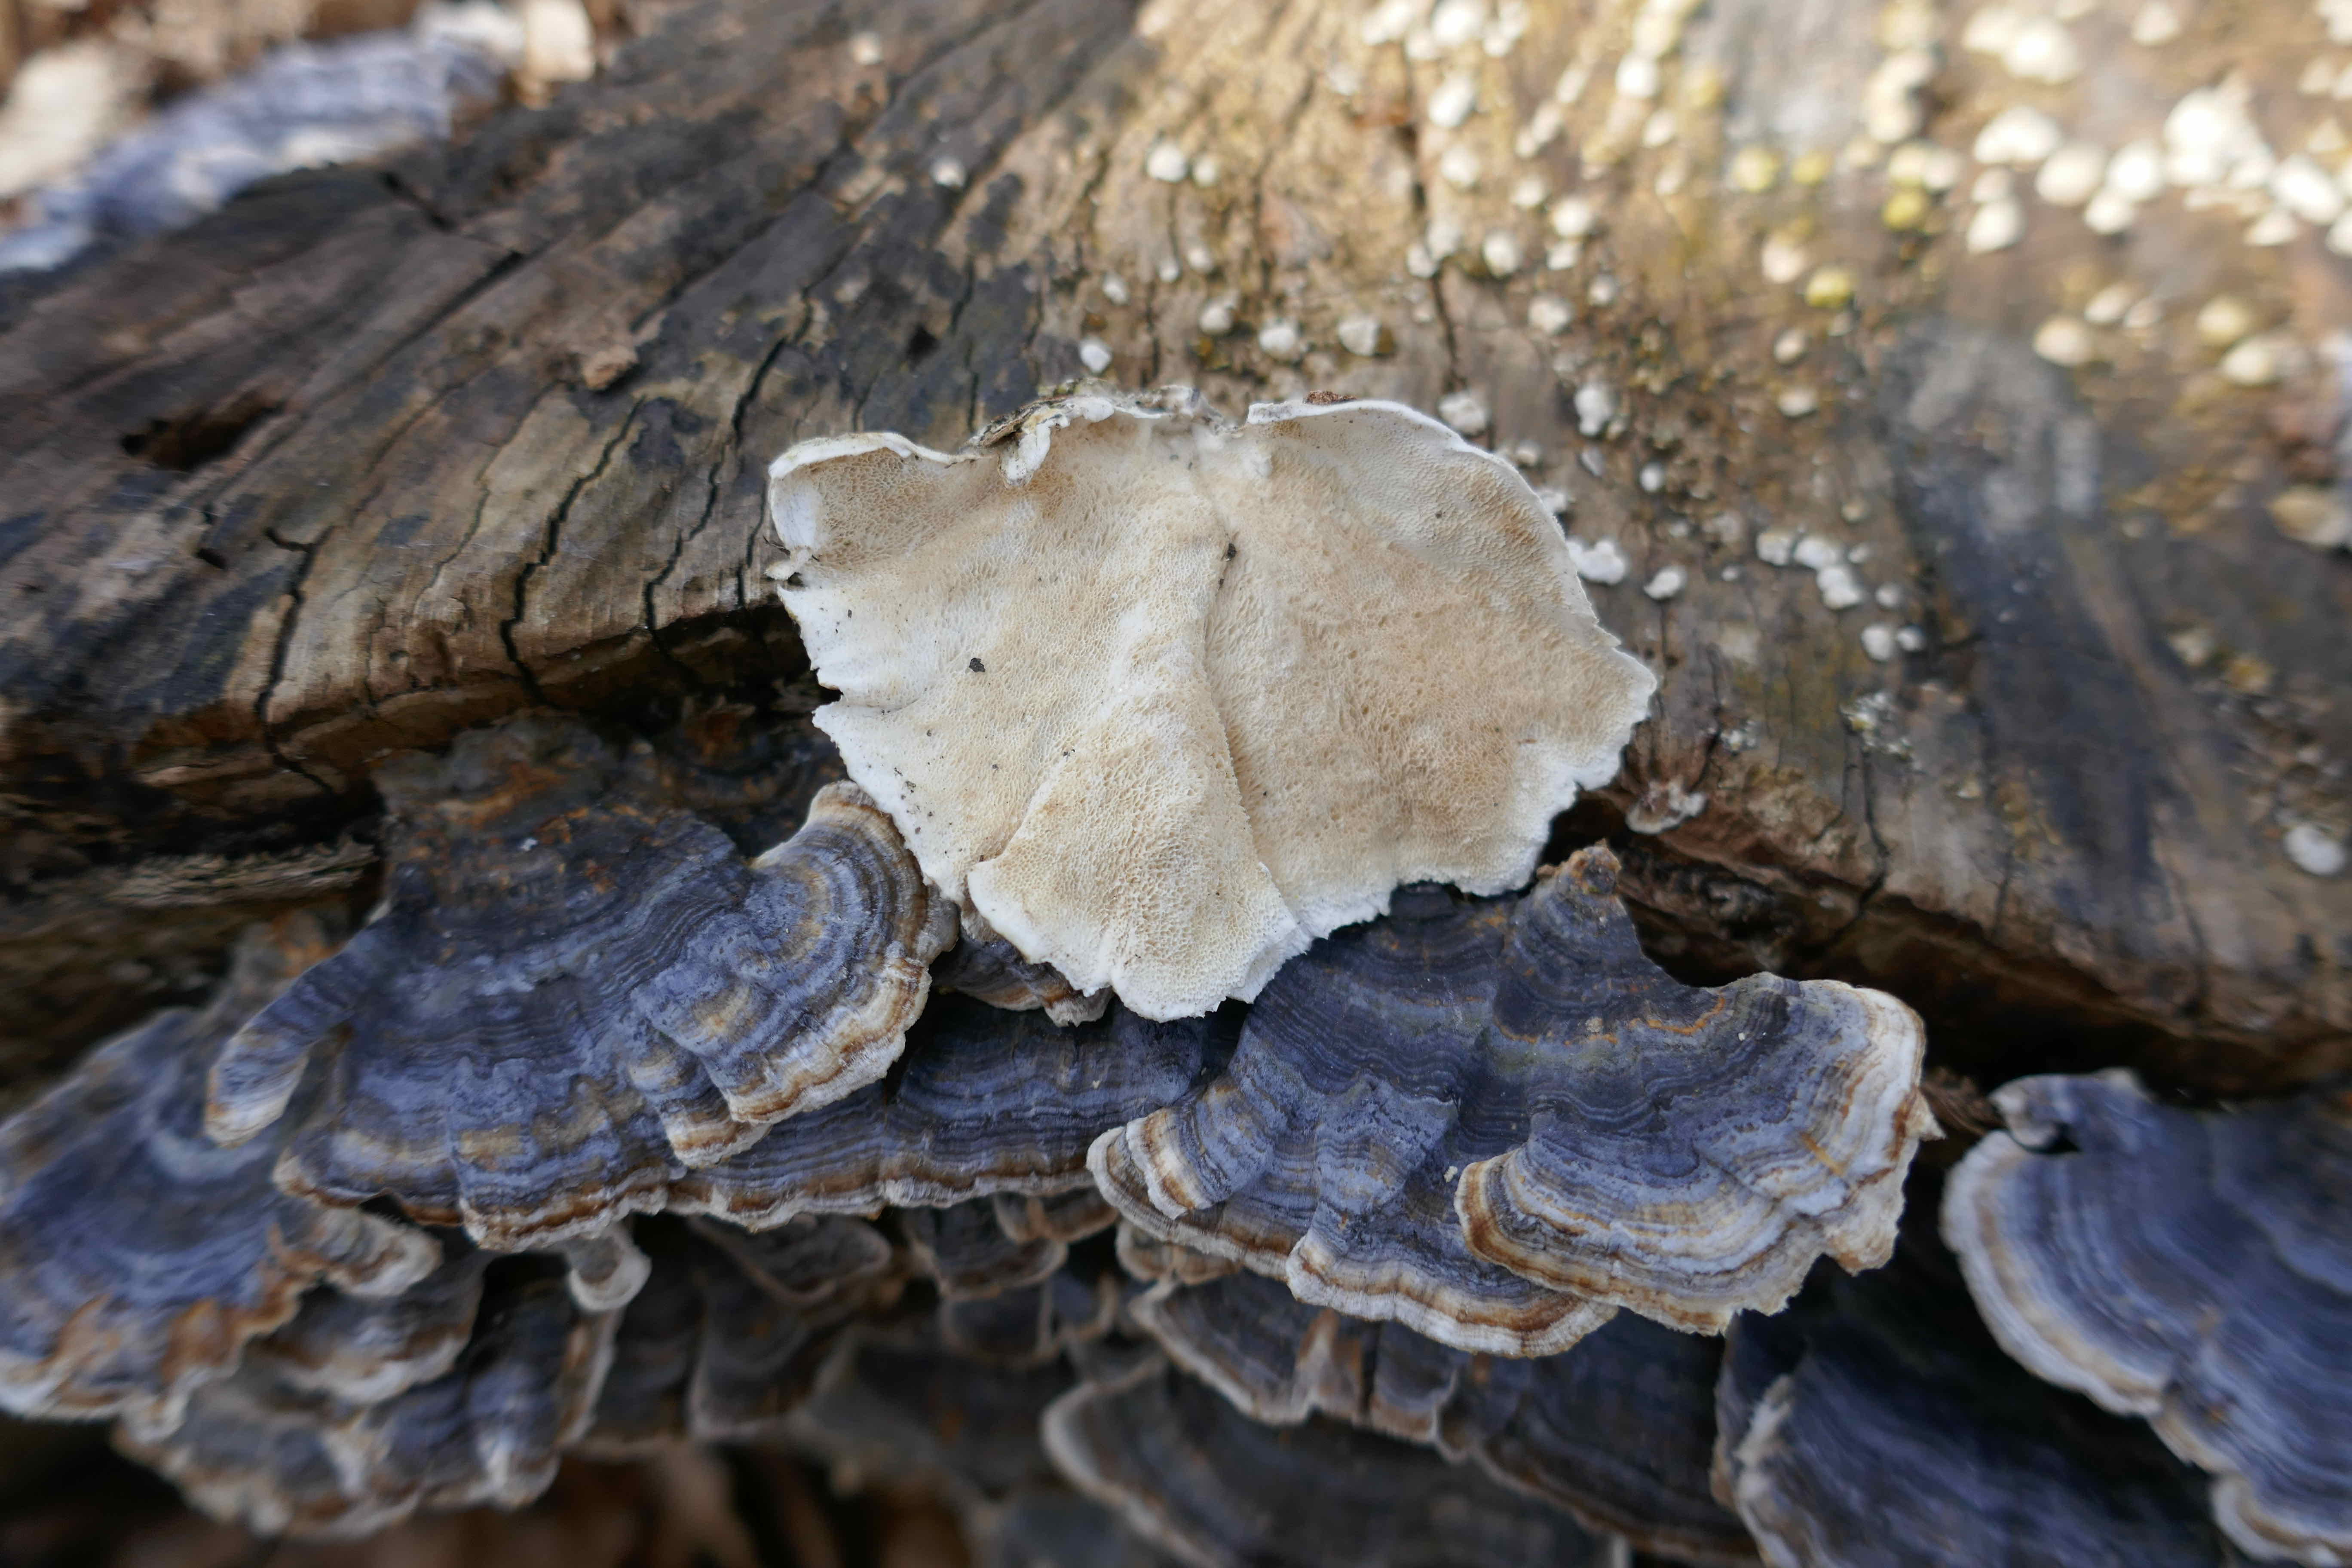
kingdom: Fungi
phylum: Basidiomycota
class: Agaricomycetes
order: Polyporales
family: Polyporaceae
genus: Trametes
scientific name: Trametes versicolor
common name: broget læderporesvamp
